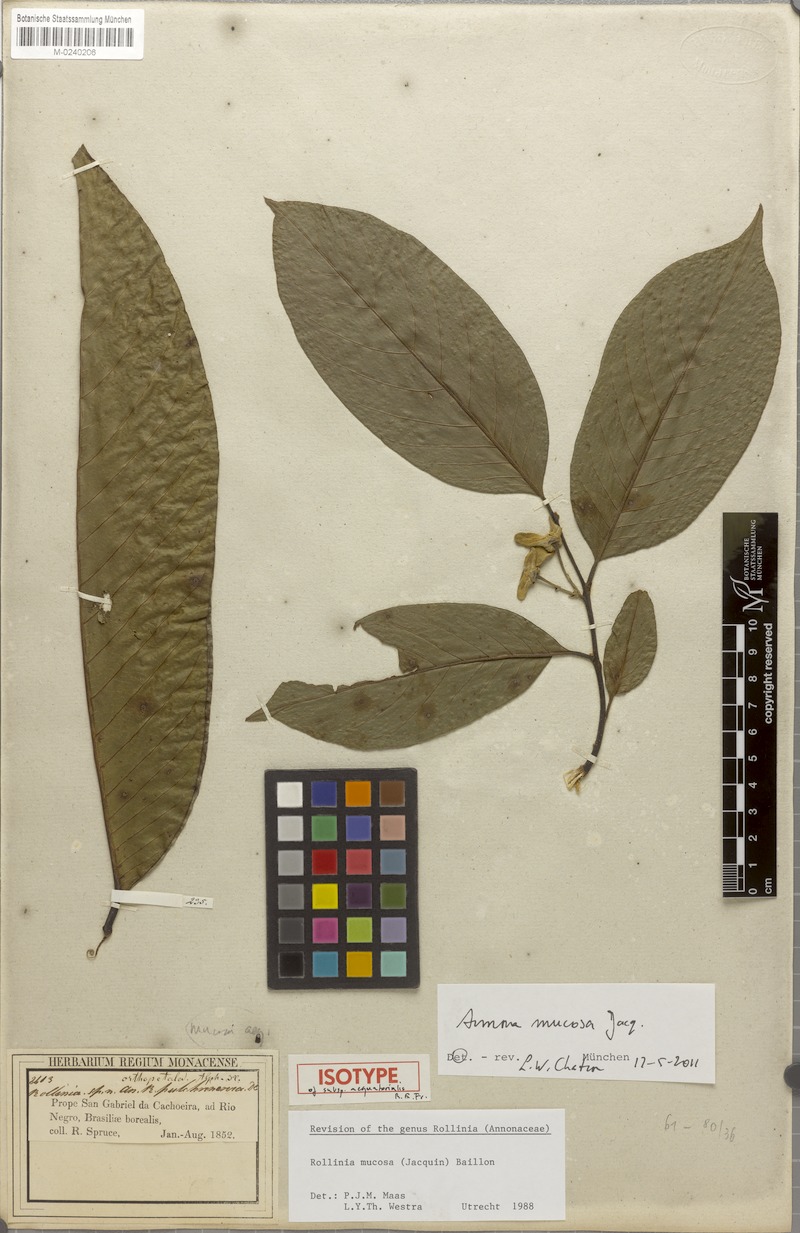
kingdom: Plantae
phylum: Tracheophyta
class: Magnoliopsida
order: Magnoliales
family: Annonaceae
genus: Annona
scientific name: Annona mucosa
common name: Sugar apple
